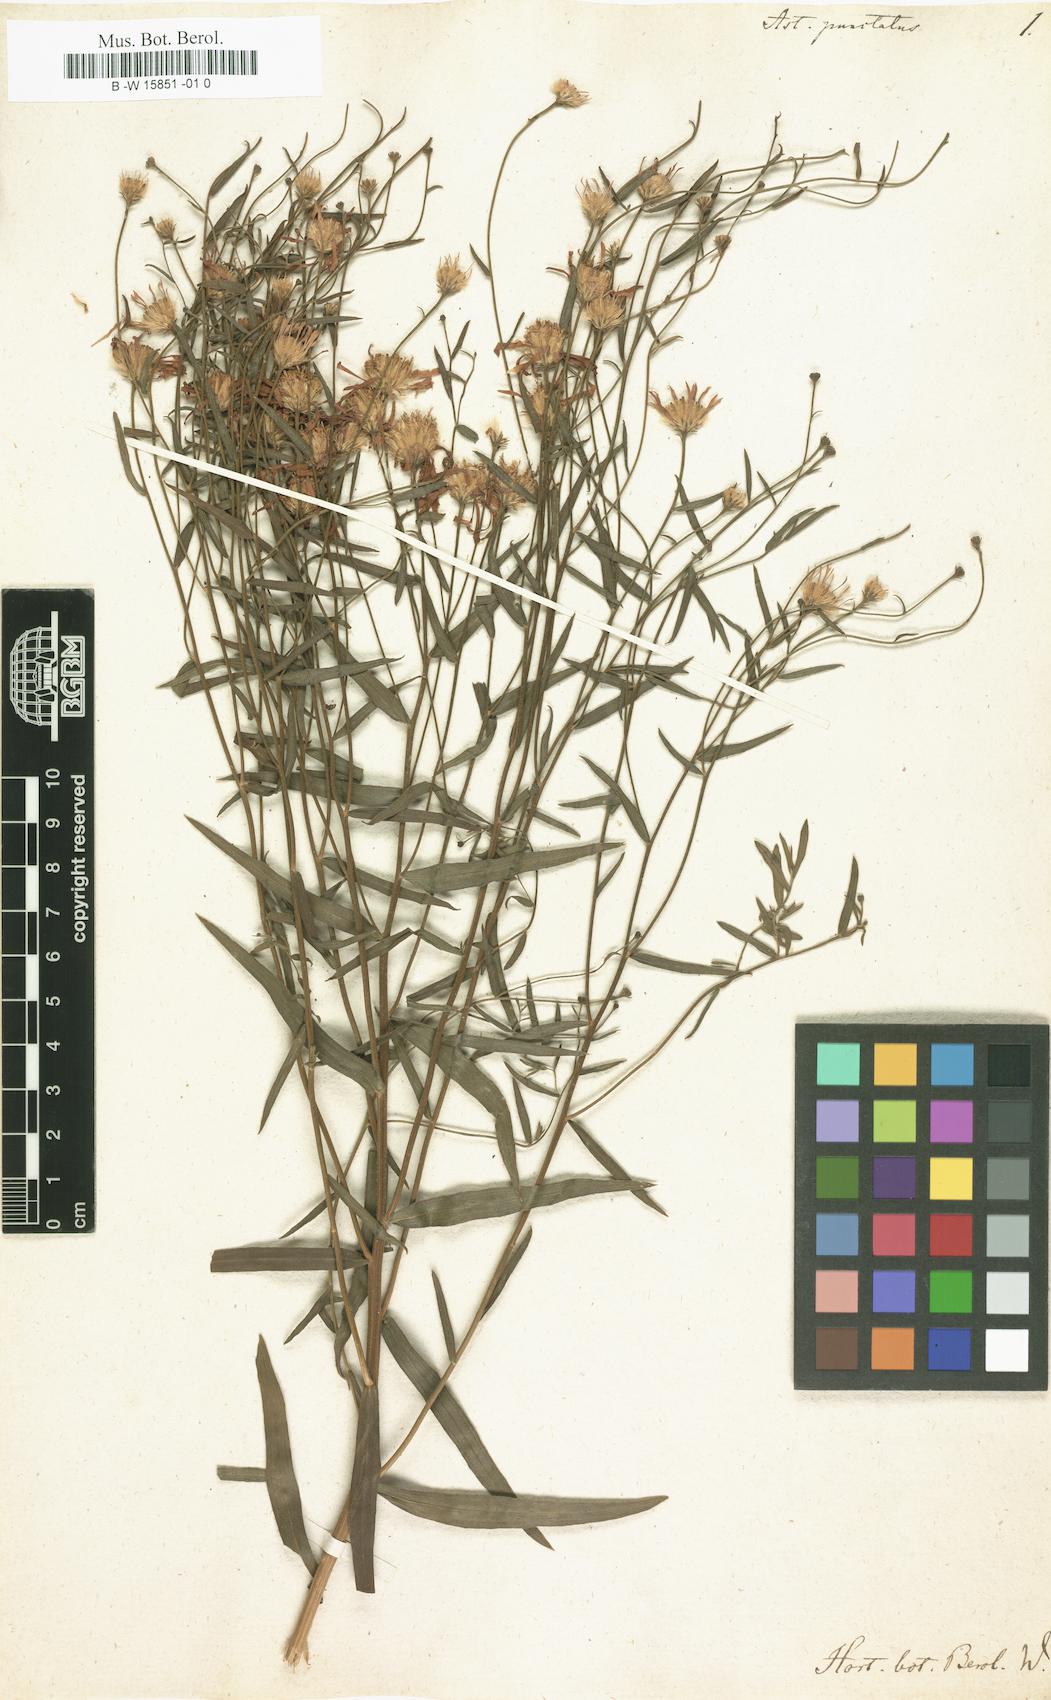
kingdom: Plantae
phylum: Tracheophyta
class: Magnoliopsida
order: Asterales
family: Asteraceae
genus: Aster
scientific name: Aster punctatus
